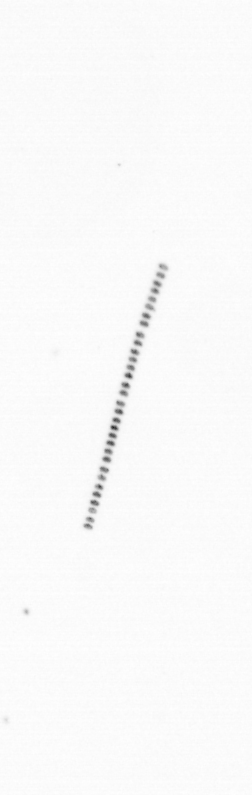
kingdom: Chromista
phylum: Ochrophyta
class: Bacillariophyceae
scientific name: Bacillariophyceae
